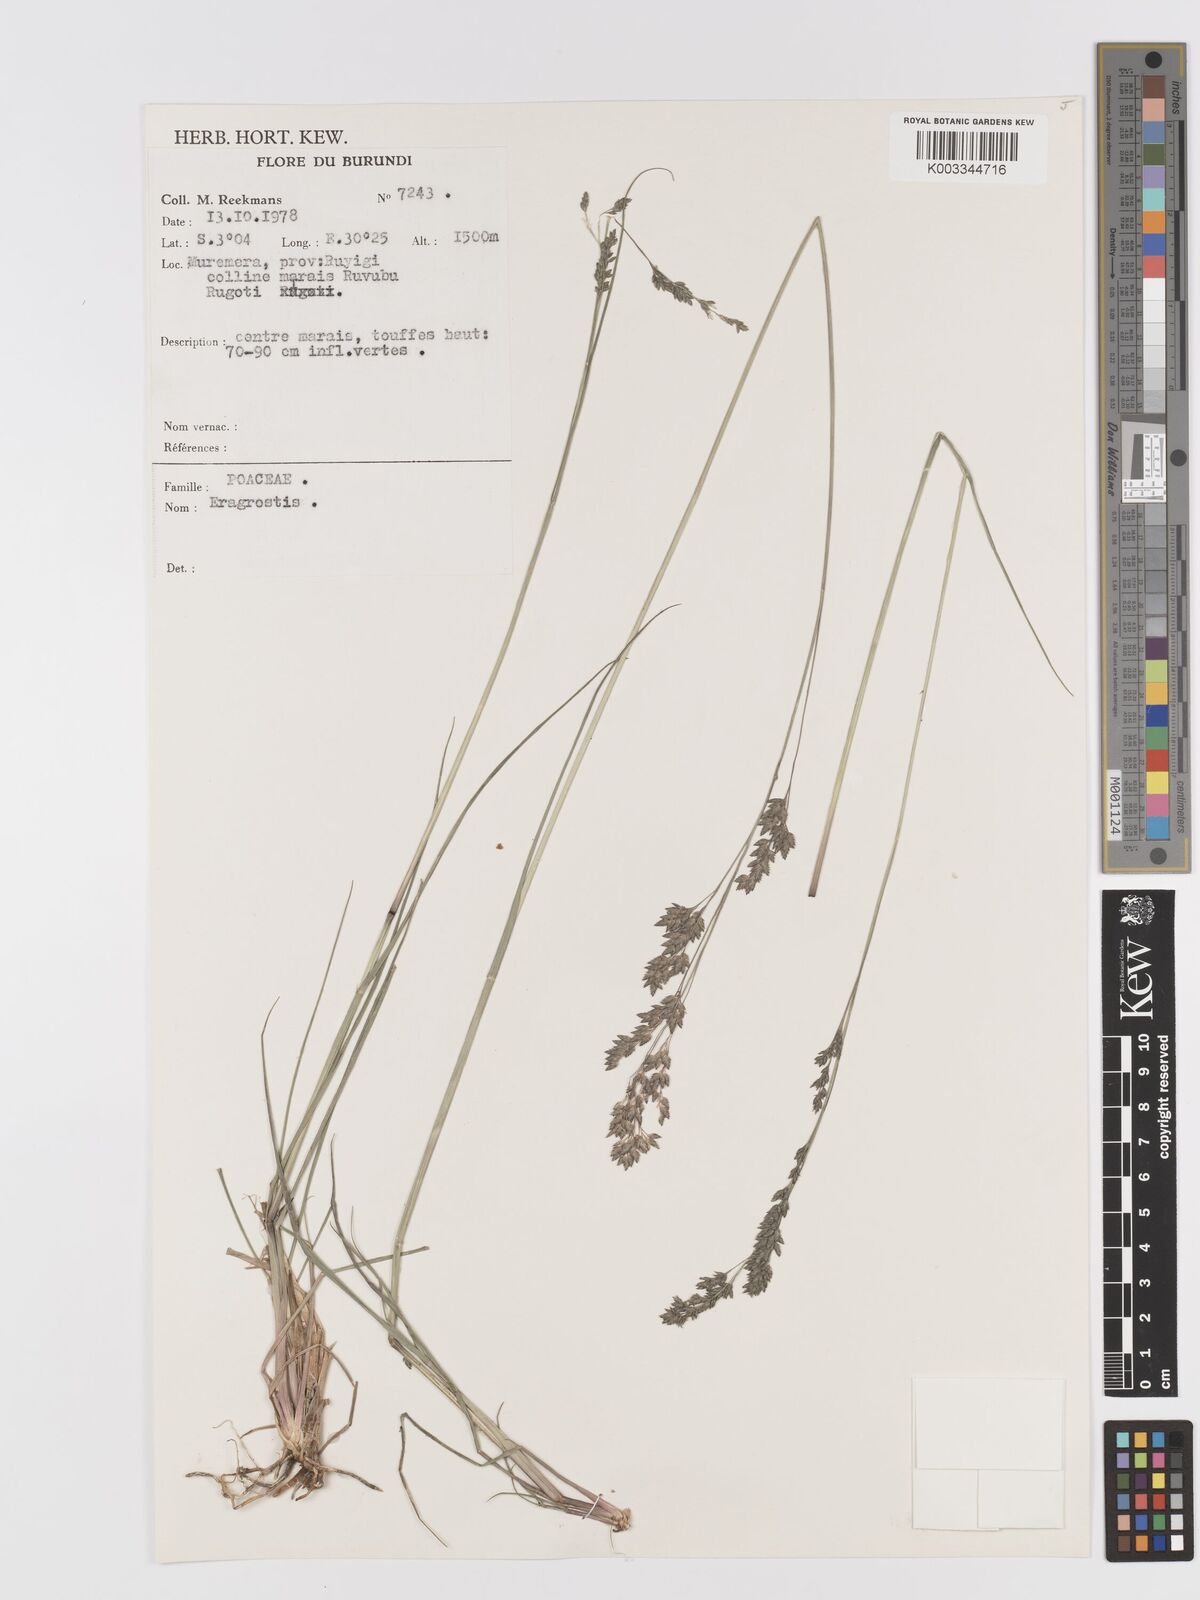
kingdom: Plantae
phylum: Tracheophyta
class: Liliopsida
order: Poales
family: Poaceae
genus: Eragrostis
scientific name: Eragrostis botryodes
